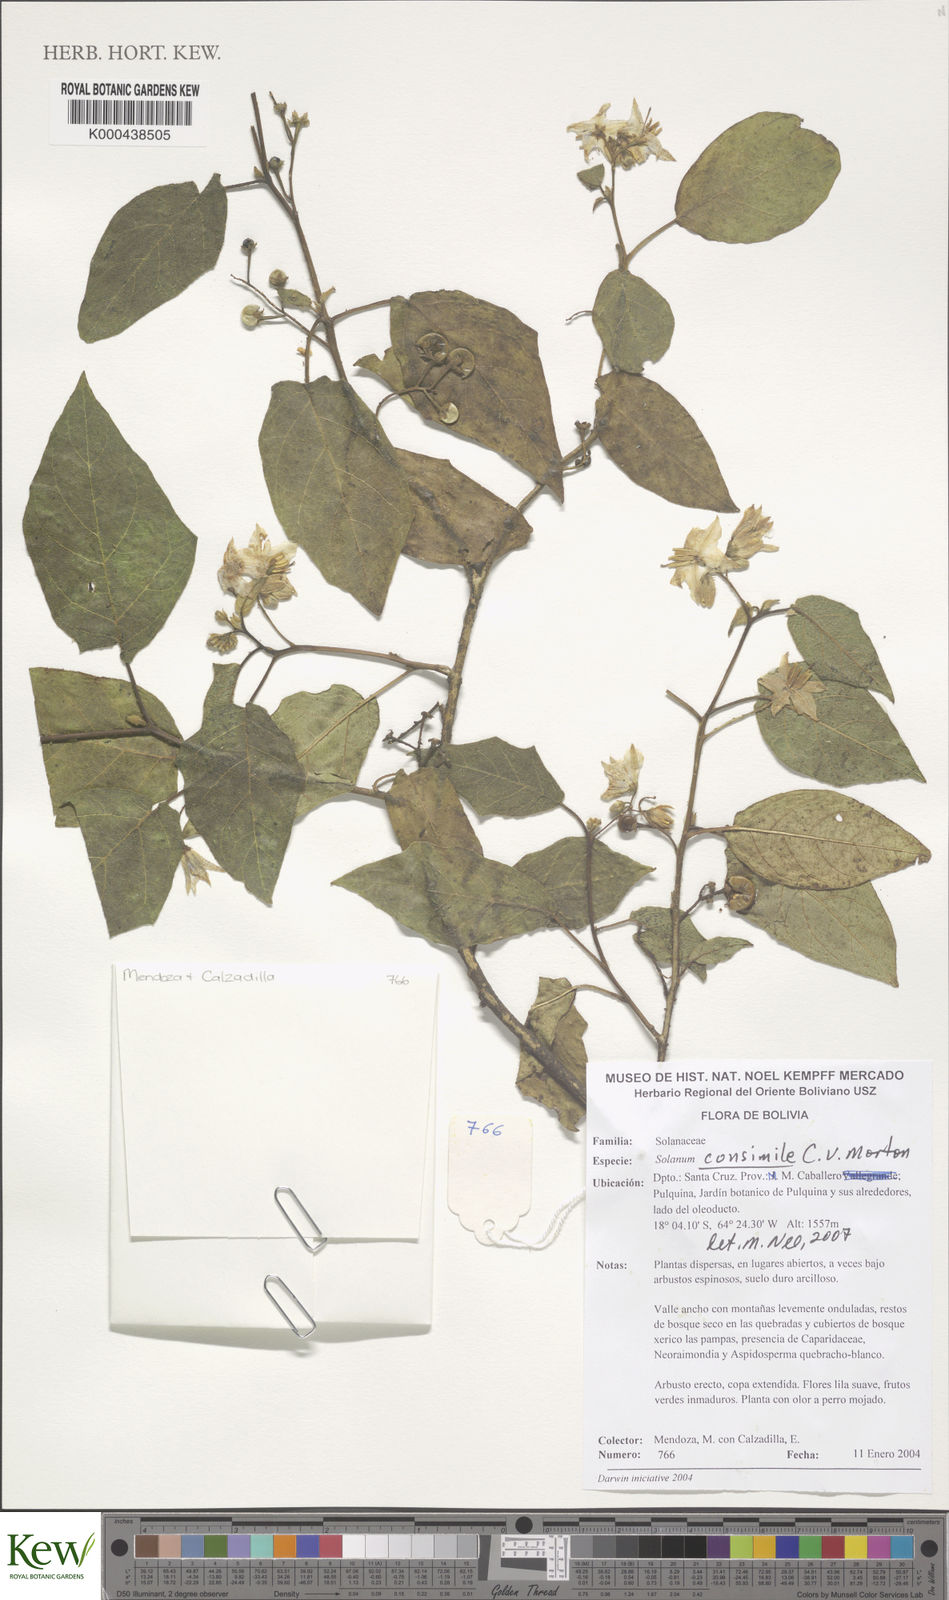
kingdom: Plantae
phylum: Tracheophyta
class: Magnoliopsida
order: Solanales
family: Solanaceae
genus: Solanum
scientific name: Solanum consimile
